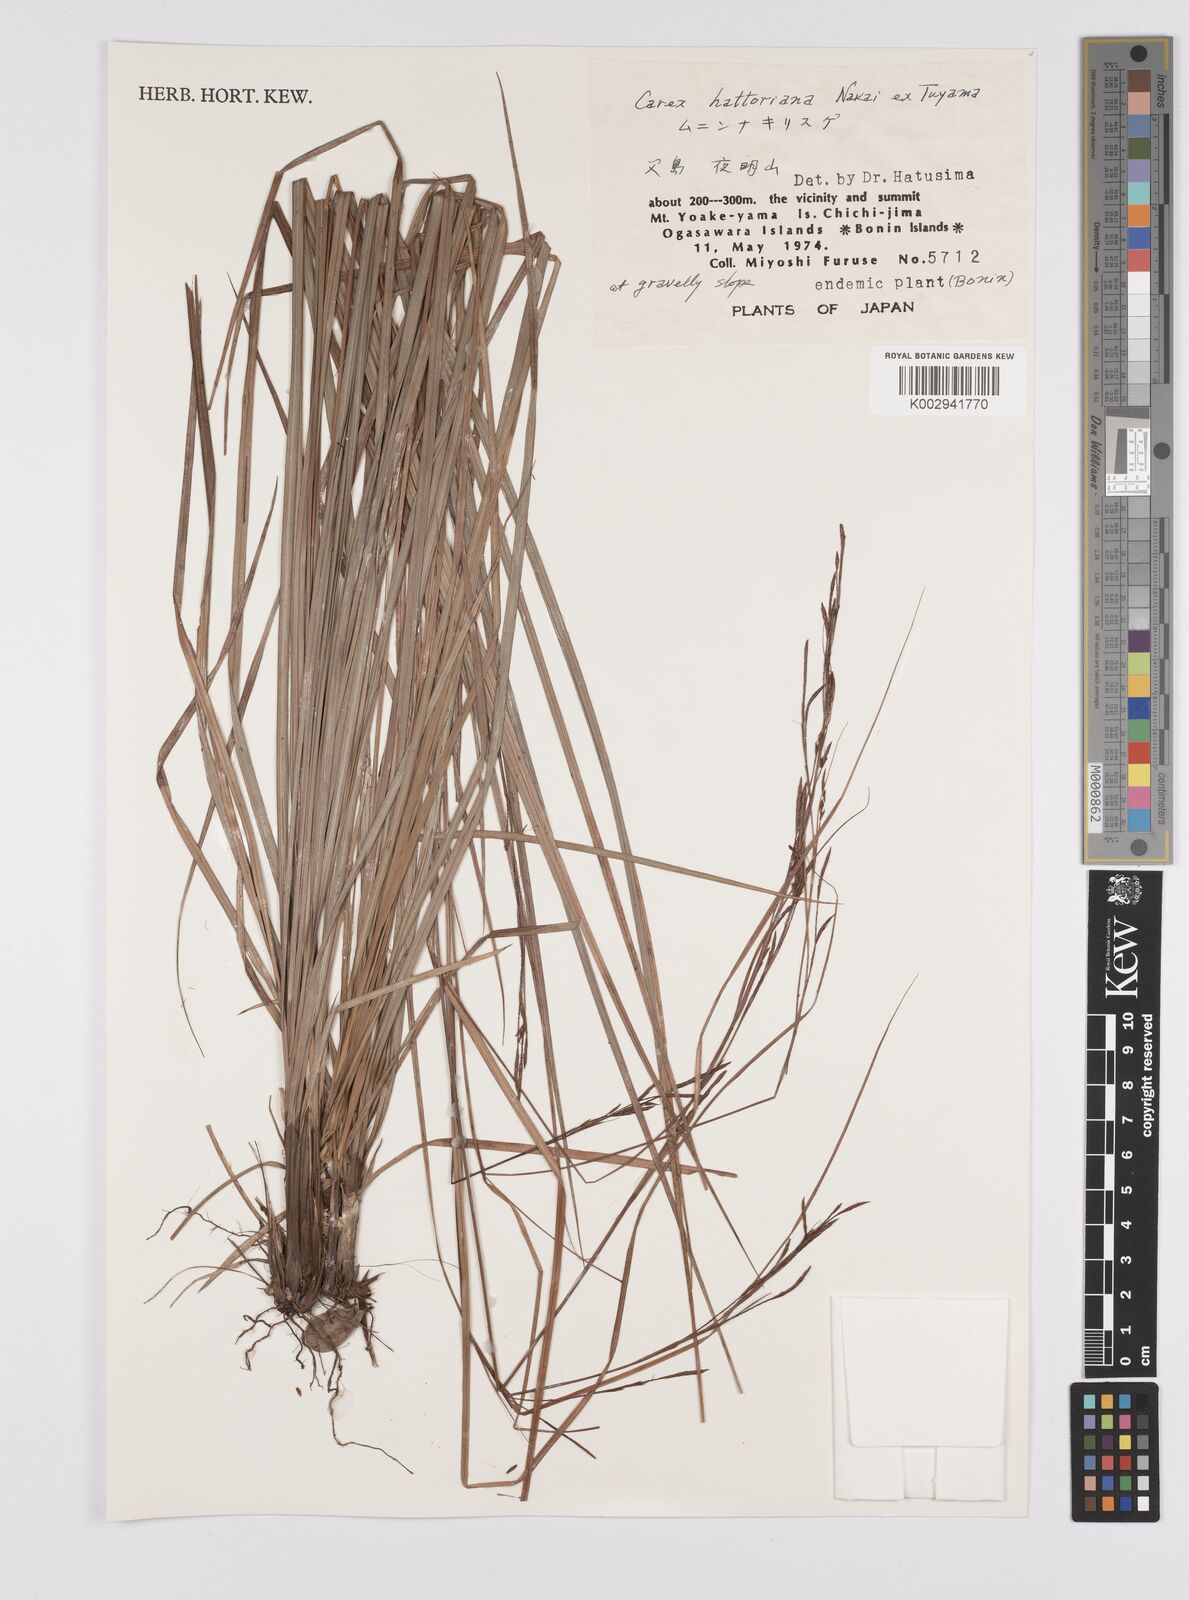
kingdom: Plantae
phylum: Tracheophyta
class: Liliopsida
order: Poales
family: Cyperaceae
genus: Carex
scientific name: Carex brunnea
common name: Greater brown sedge
